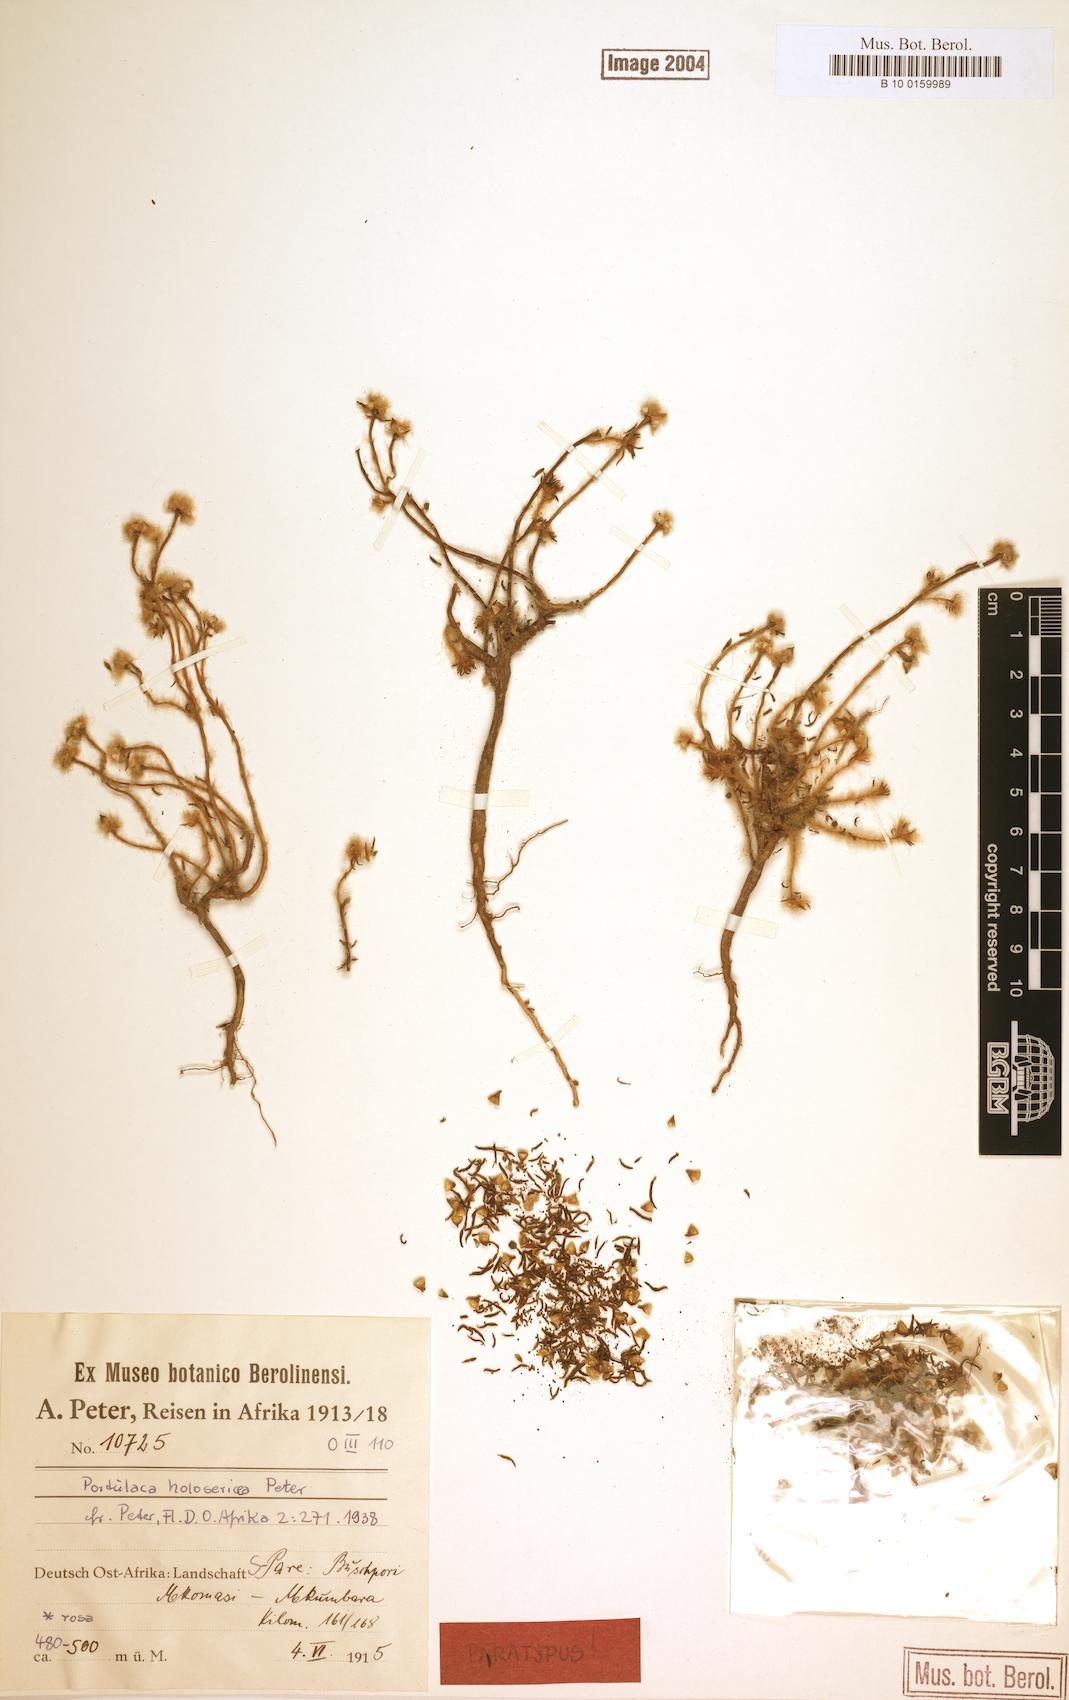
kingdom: Plantae
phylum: Tracheophyta
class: Magnoliopsida
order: Caryophyllales
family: Portulacaceae
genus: Portulaca
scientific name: Portulaca kermesina
